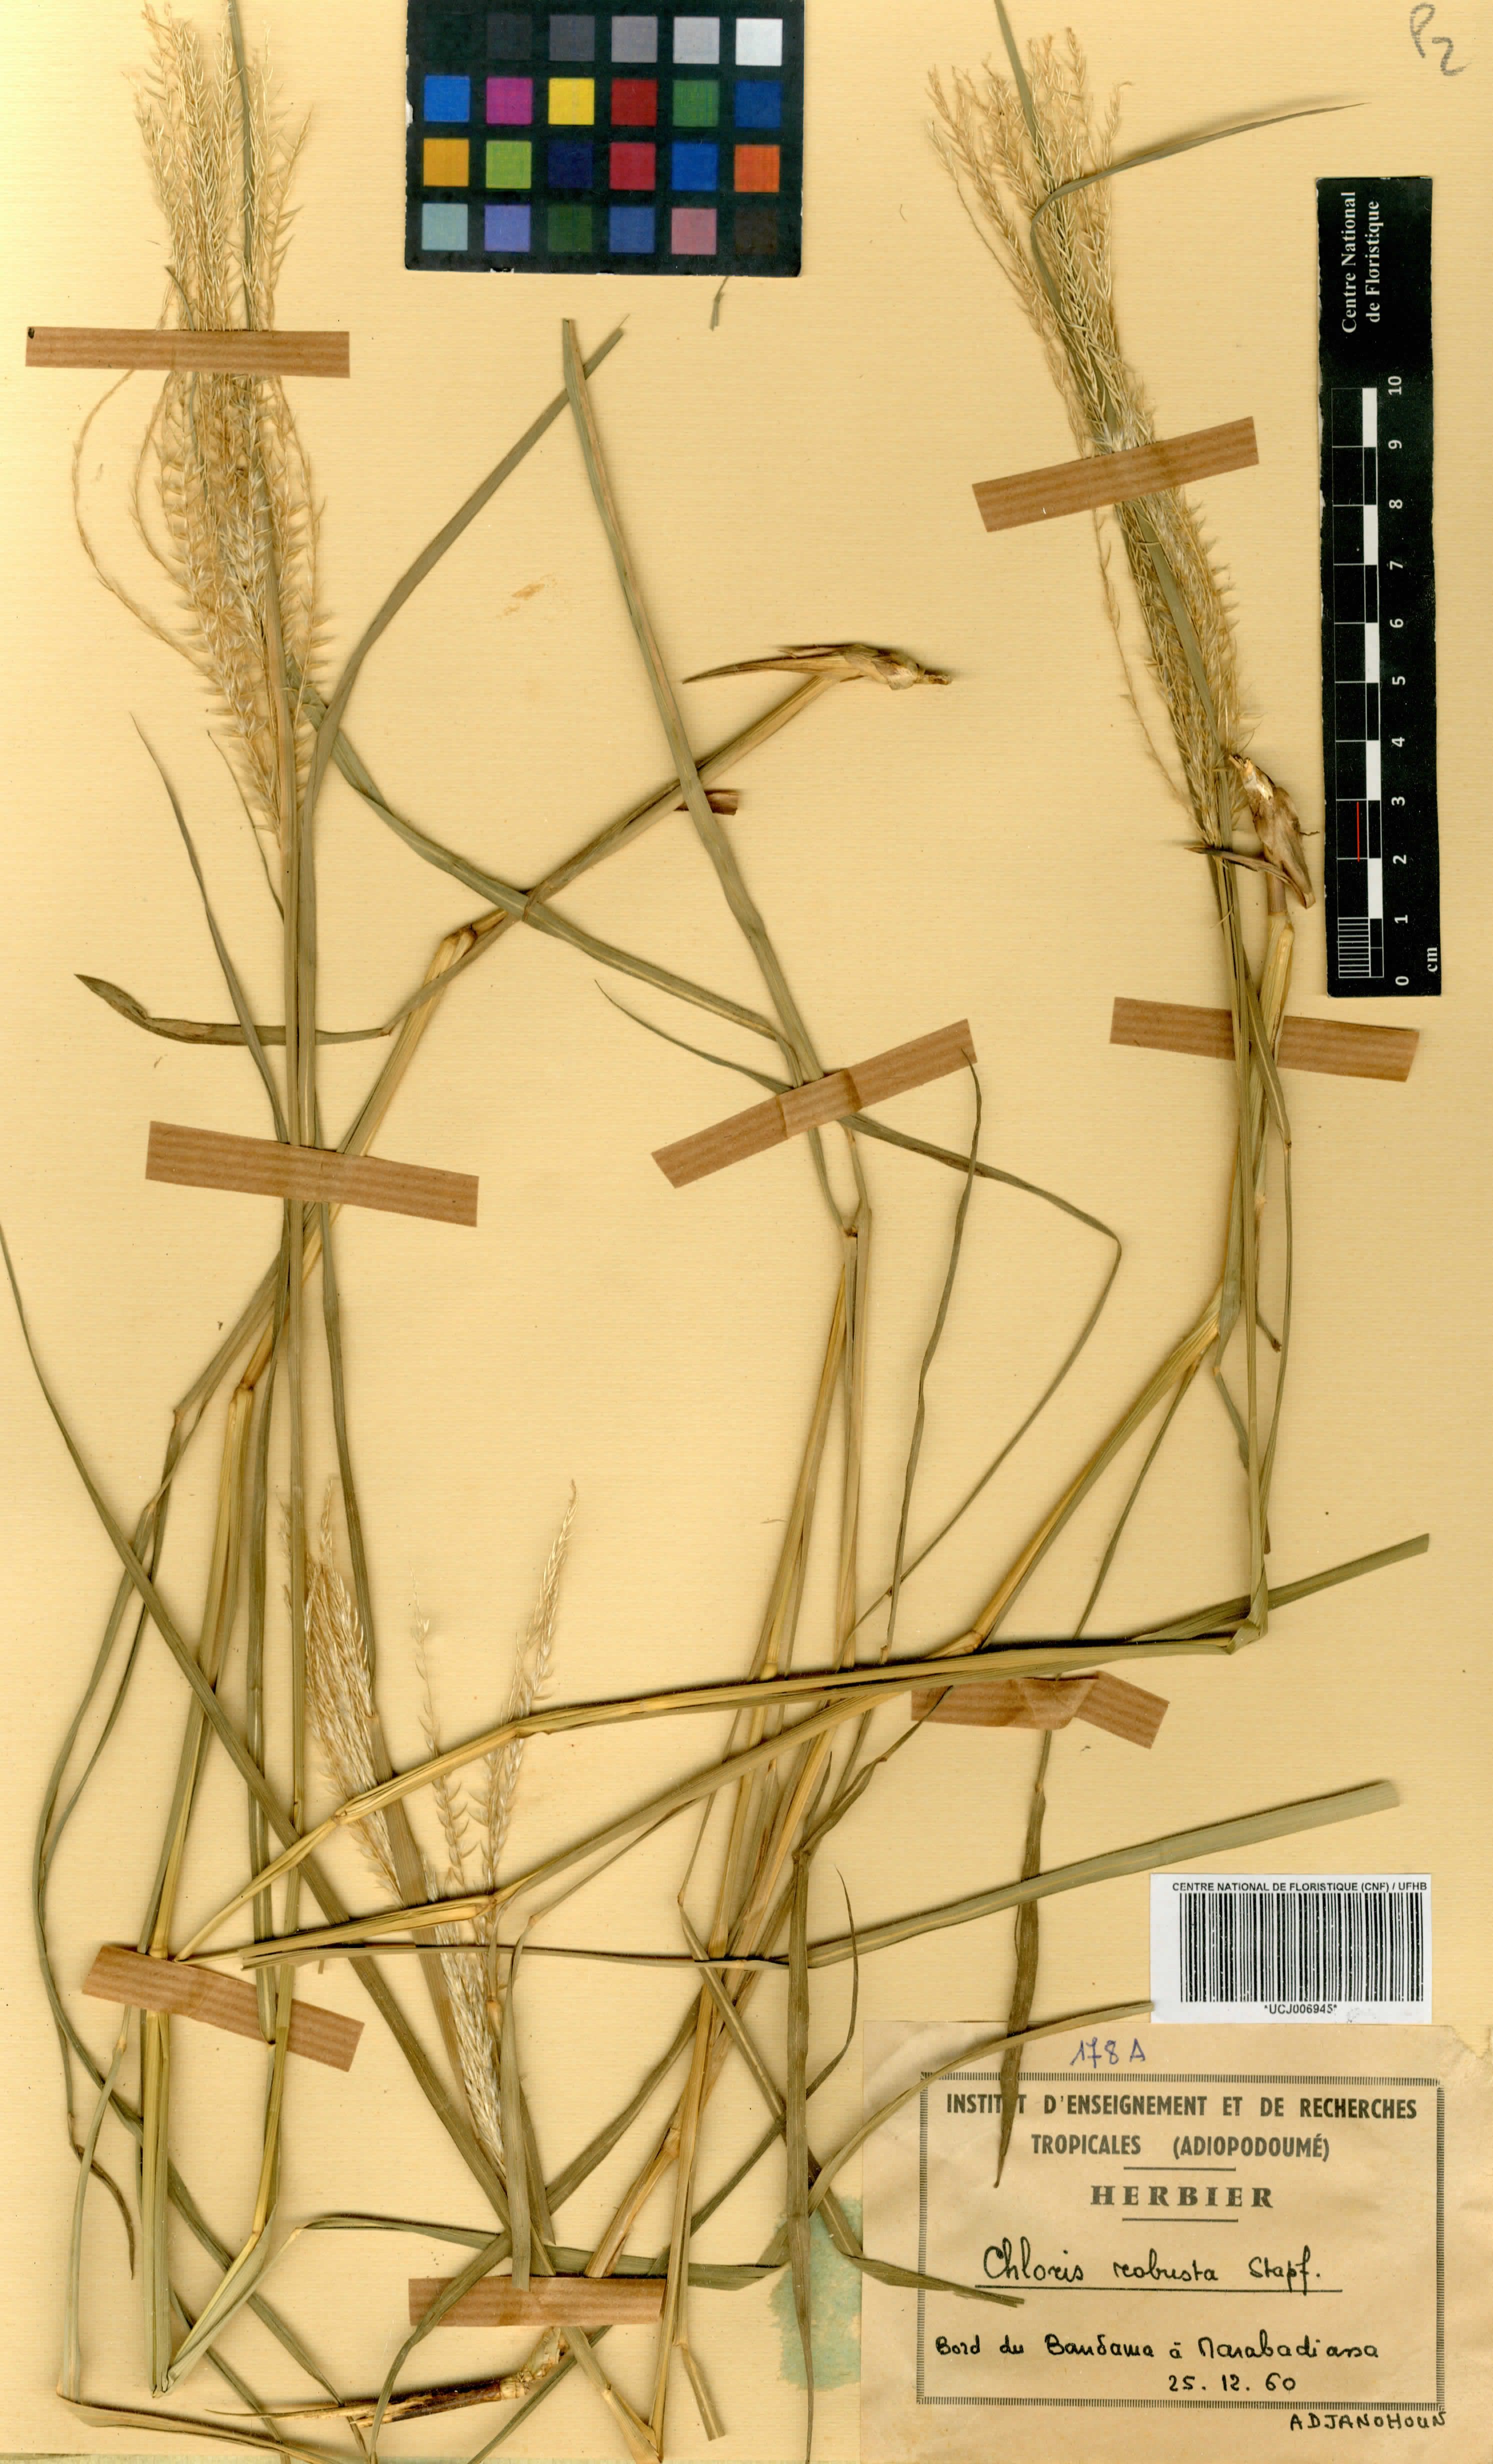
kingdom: Plantae
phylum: Tracheophyta
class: Liliopsida
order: Poales
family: Poaceae
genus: Chloris
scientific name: Chloris robusta
